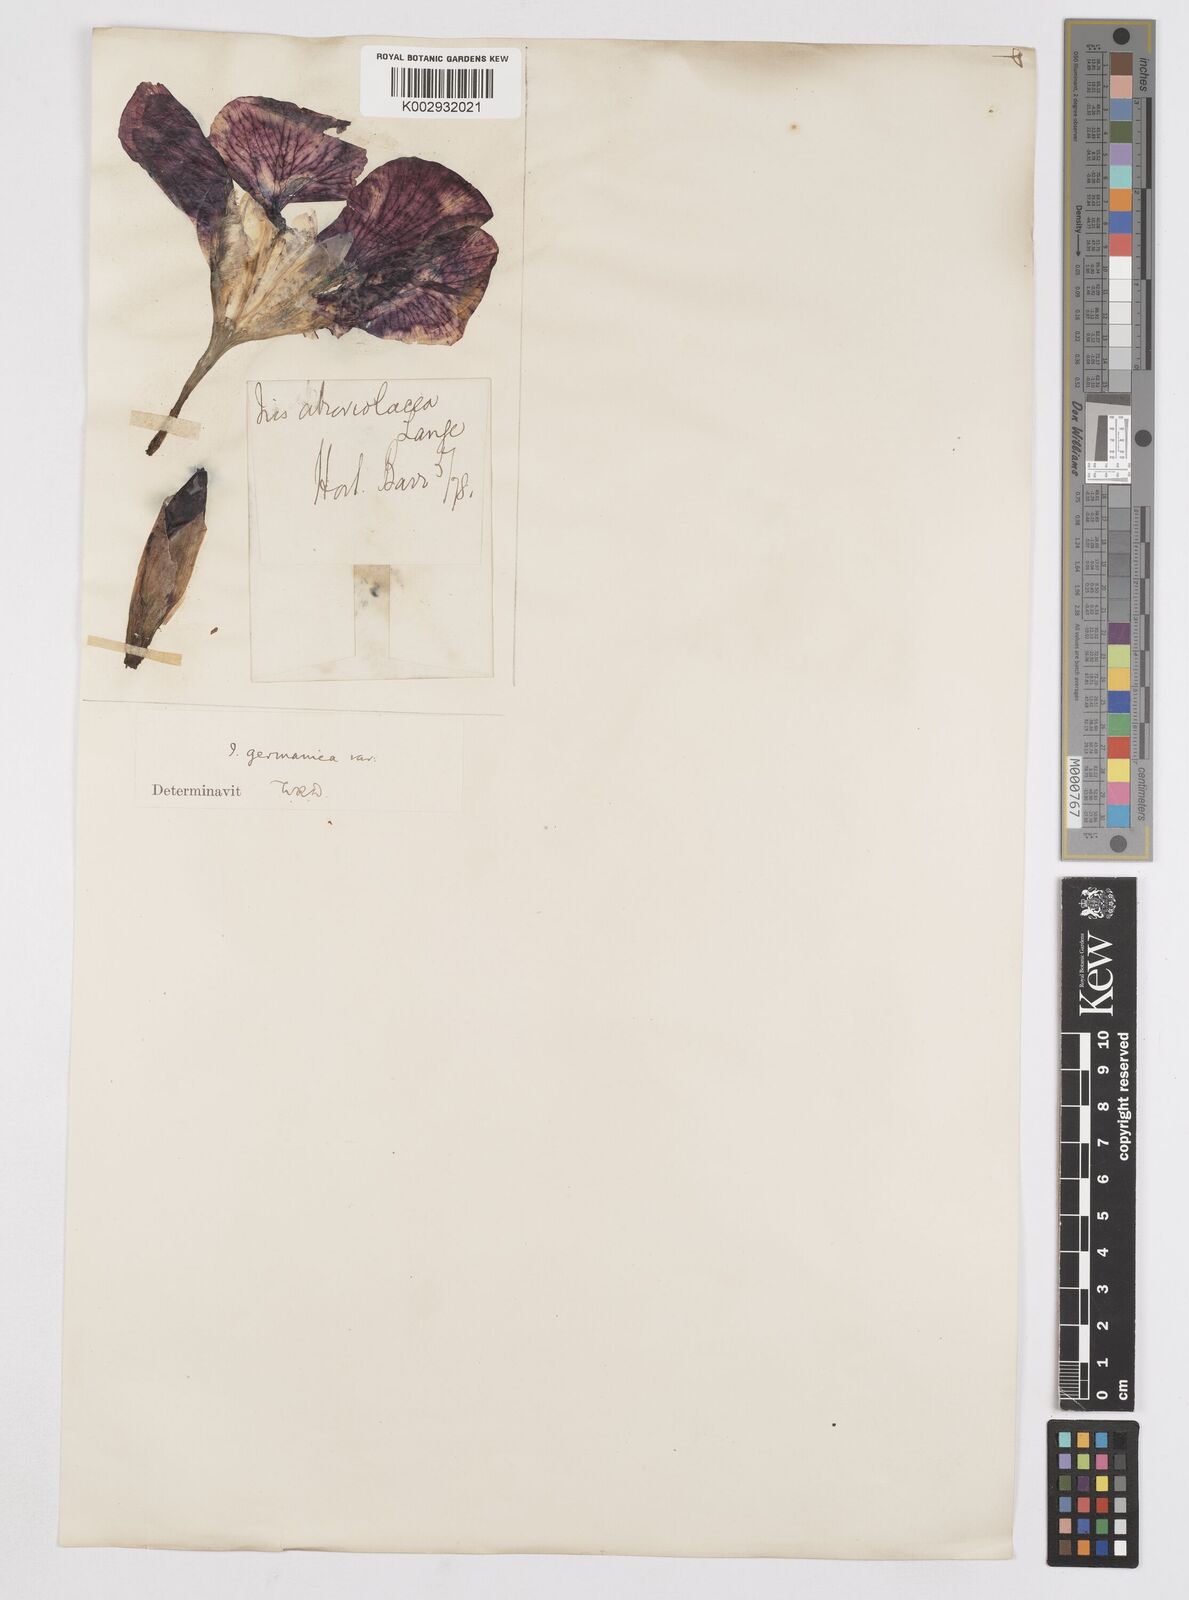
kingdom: Plantae
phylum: Tracheophyta
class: Liliopsida
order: Asparagales
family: Iridaceae
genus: Iris
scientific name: Iris germanica
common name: German iris
